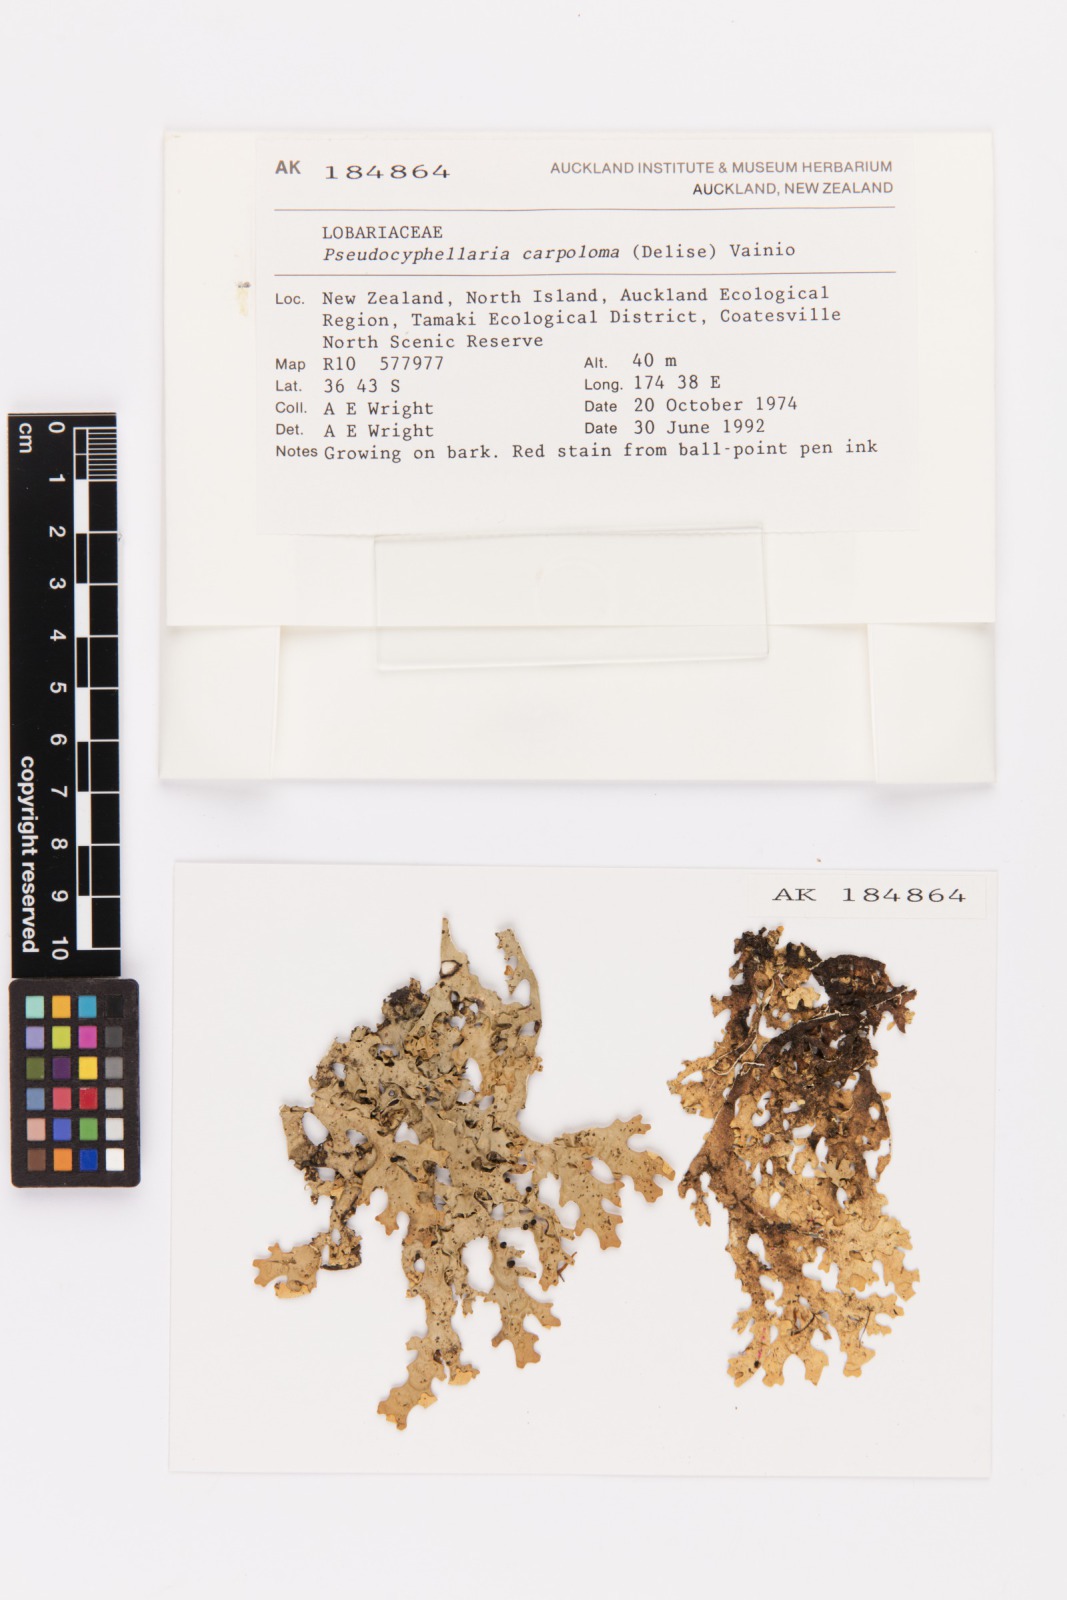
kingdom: Fungi
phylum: Ascomycota
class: Lecanoromycetes
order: Peltigerales
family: Lobariaceae
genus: Pseudocyphellaria
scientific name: Pseudocyphellaria carpoloma
